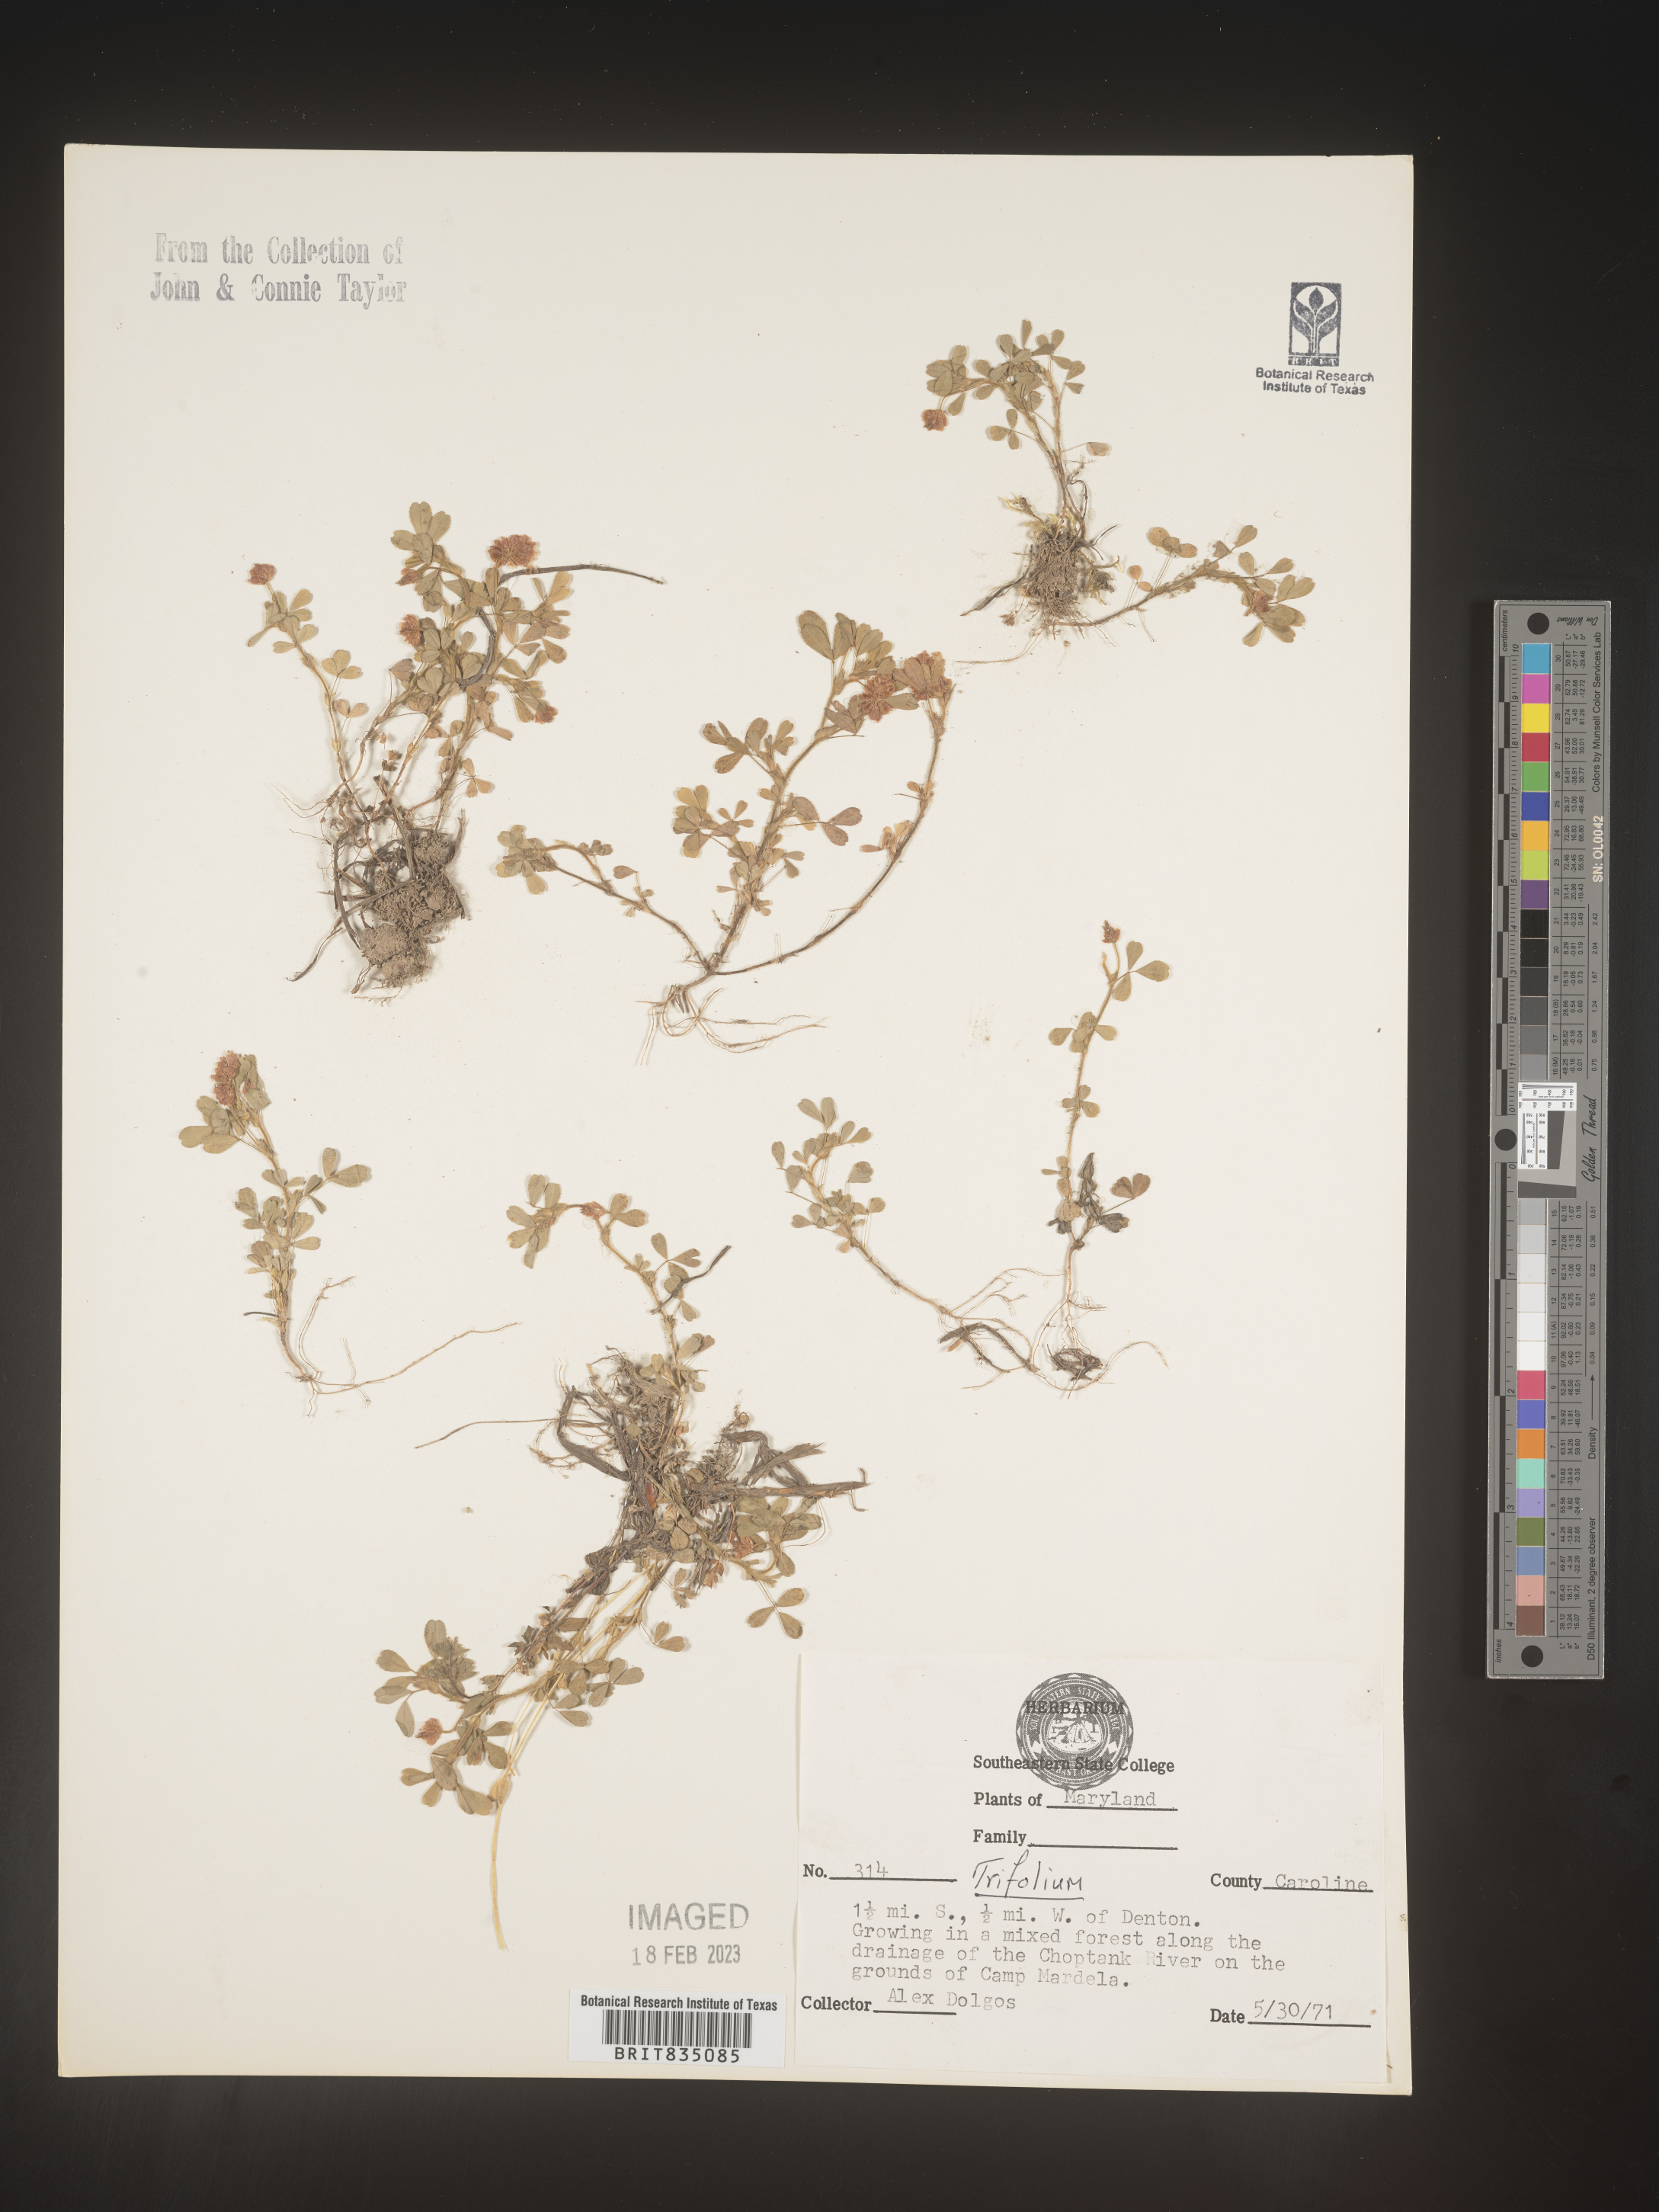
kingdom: Plantae
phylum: Tracheophyta
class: Magnoliopsida
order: Fabales
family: Fabaceae
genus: Trifolium
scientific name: Trifolium
